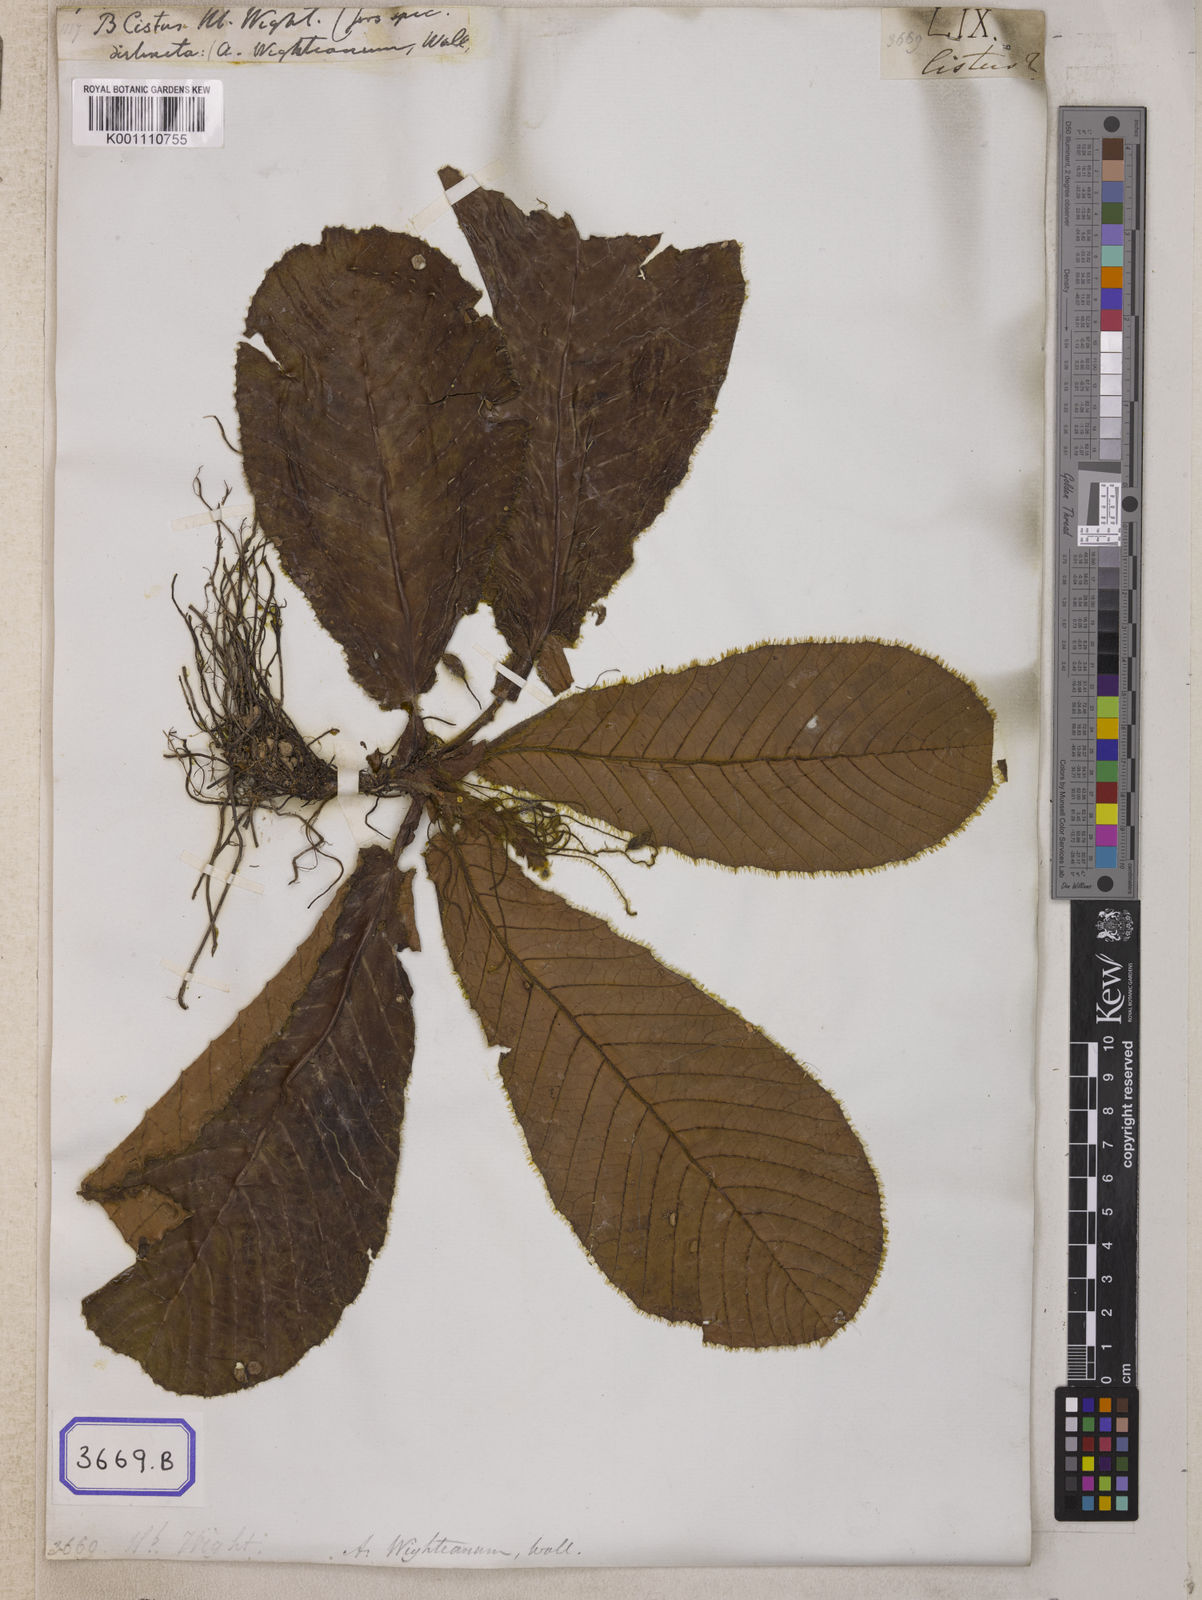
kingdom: Plantae
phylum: Tracheophyta
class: Magnoliopsida
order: Dilleniales
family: Dilleniaceae
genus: Acrotrema
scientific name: Acrotrema wightianum
